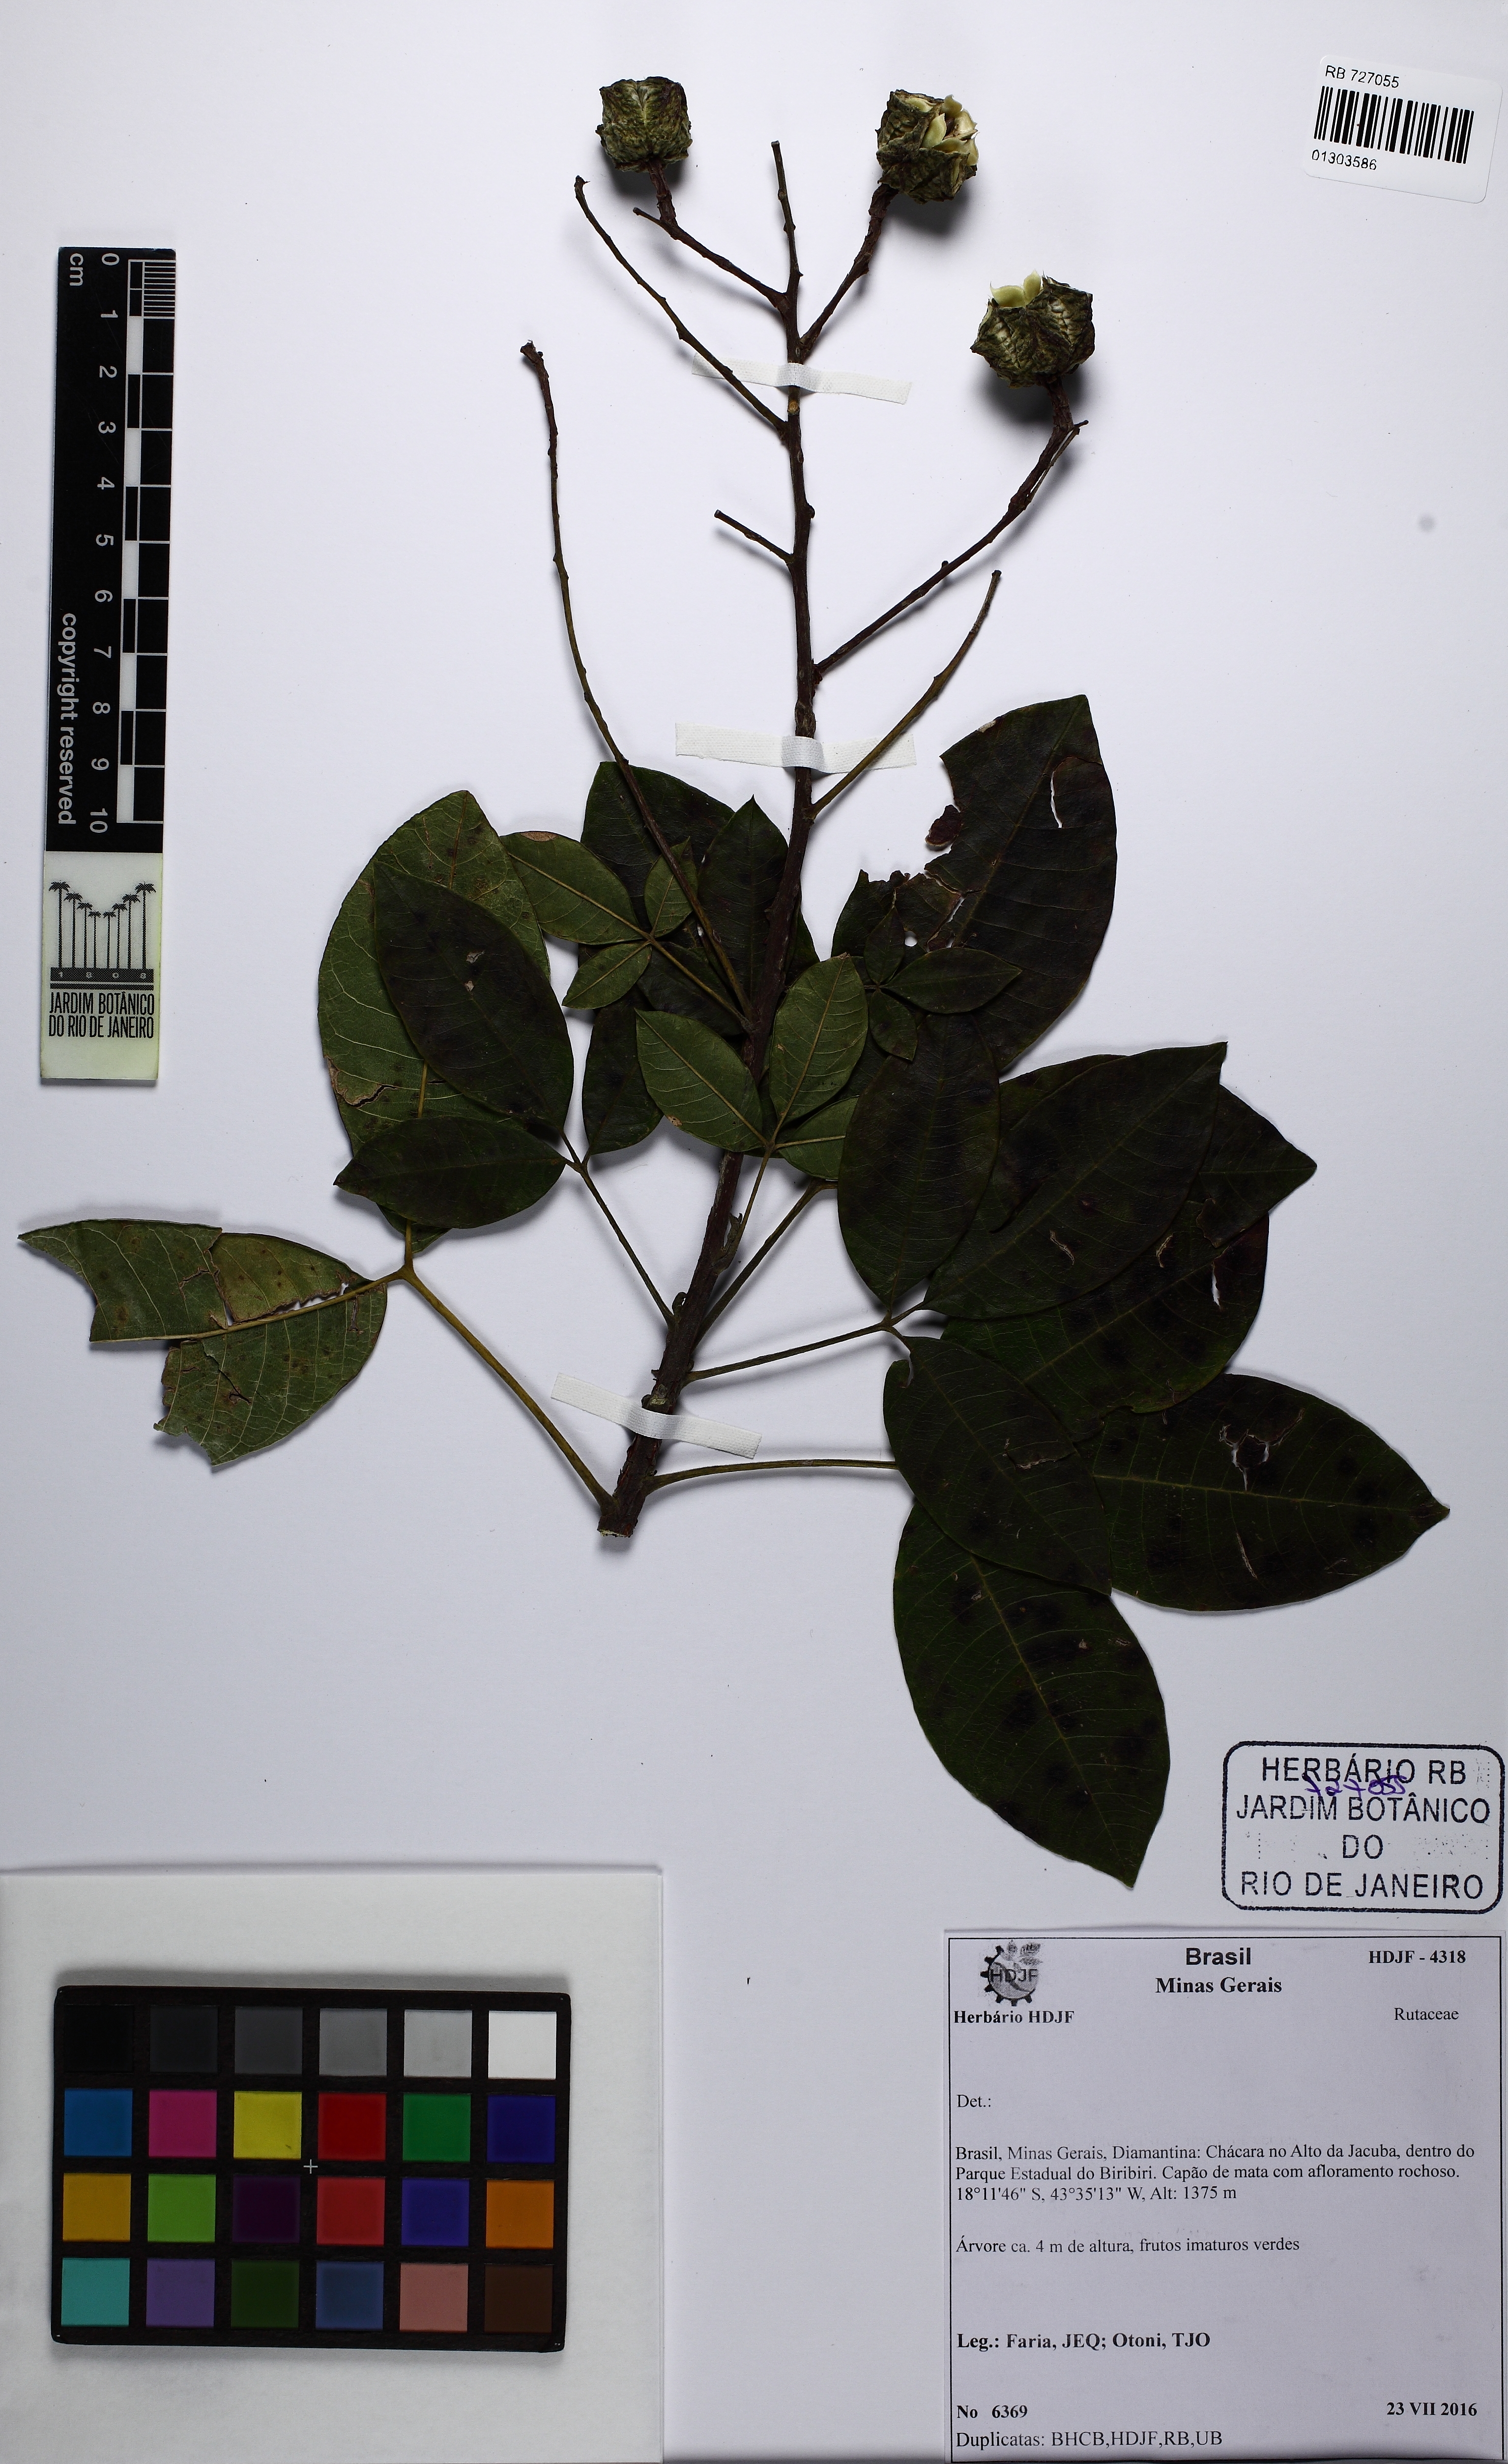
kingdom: Plantae
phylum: Tracheophyta
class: Magnoliopsida
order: Sapindales
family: Rutaceae
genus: Esenbeckia
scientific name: Esenbeckia irwiniana
